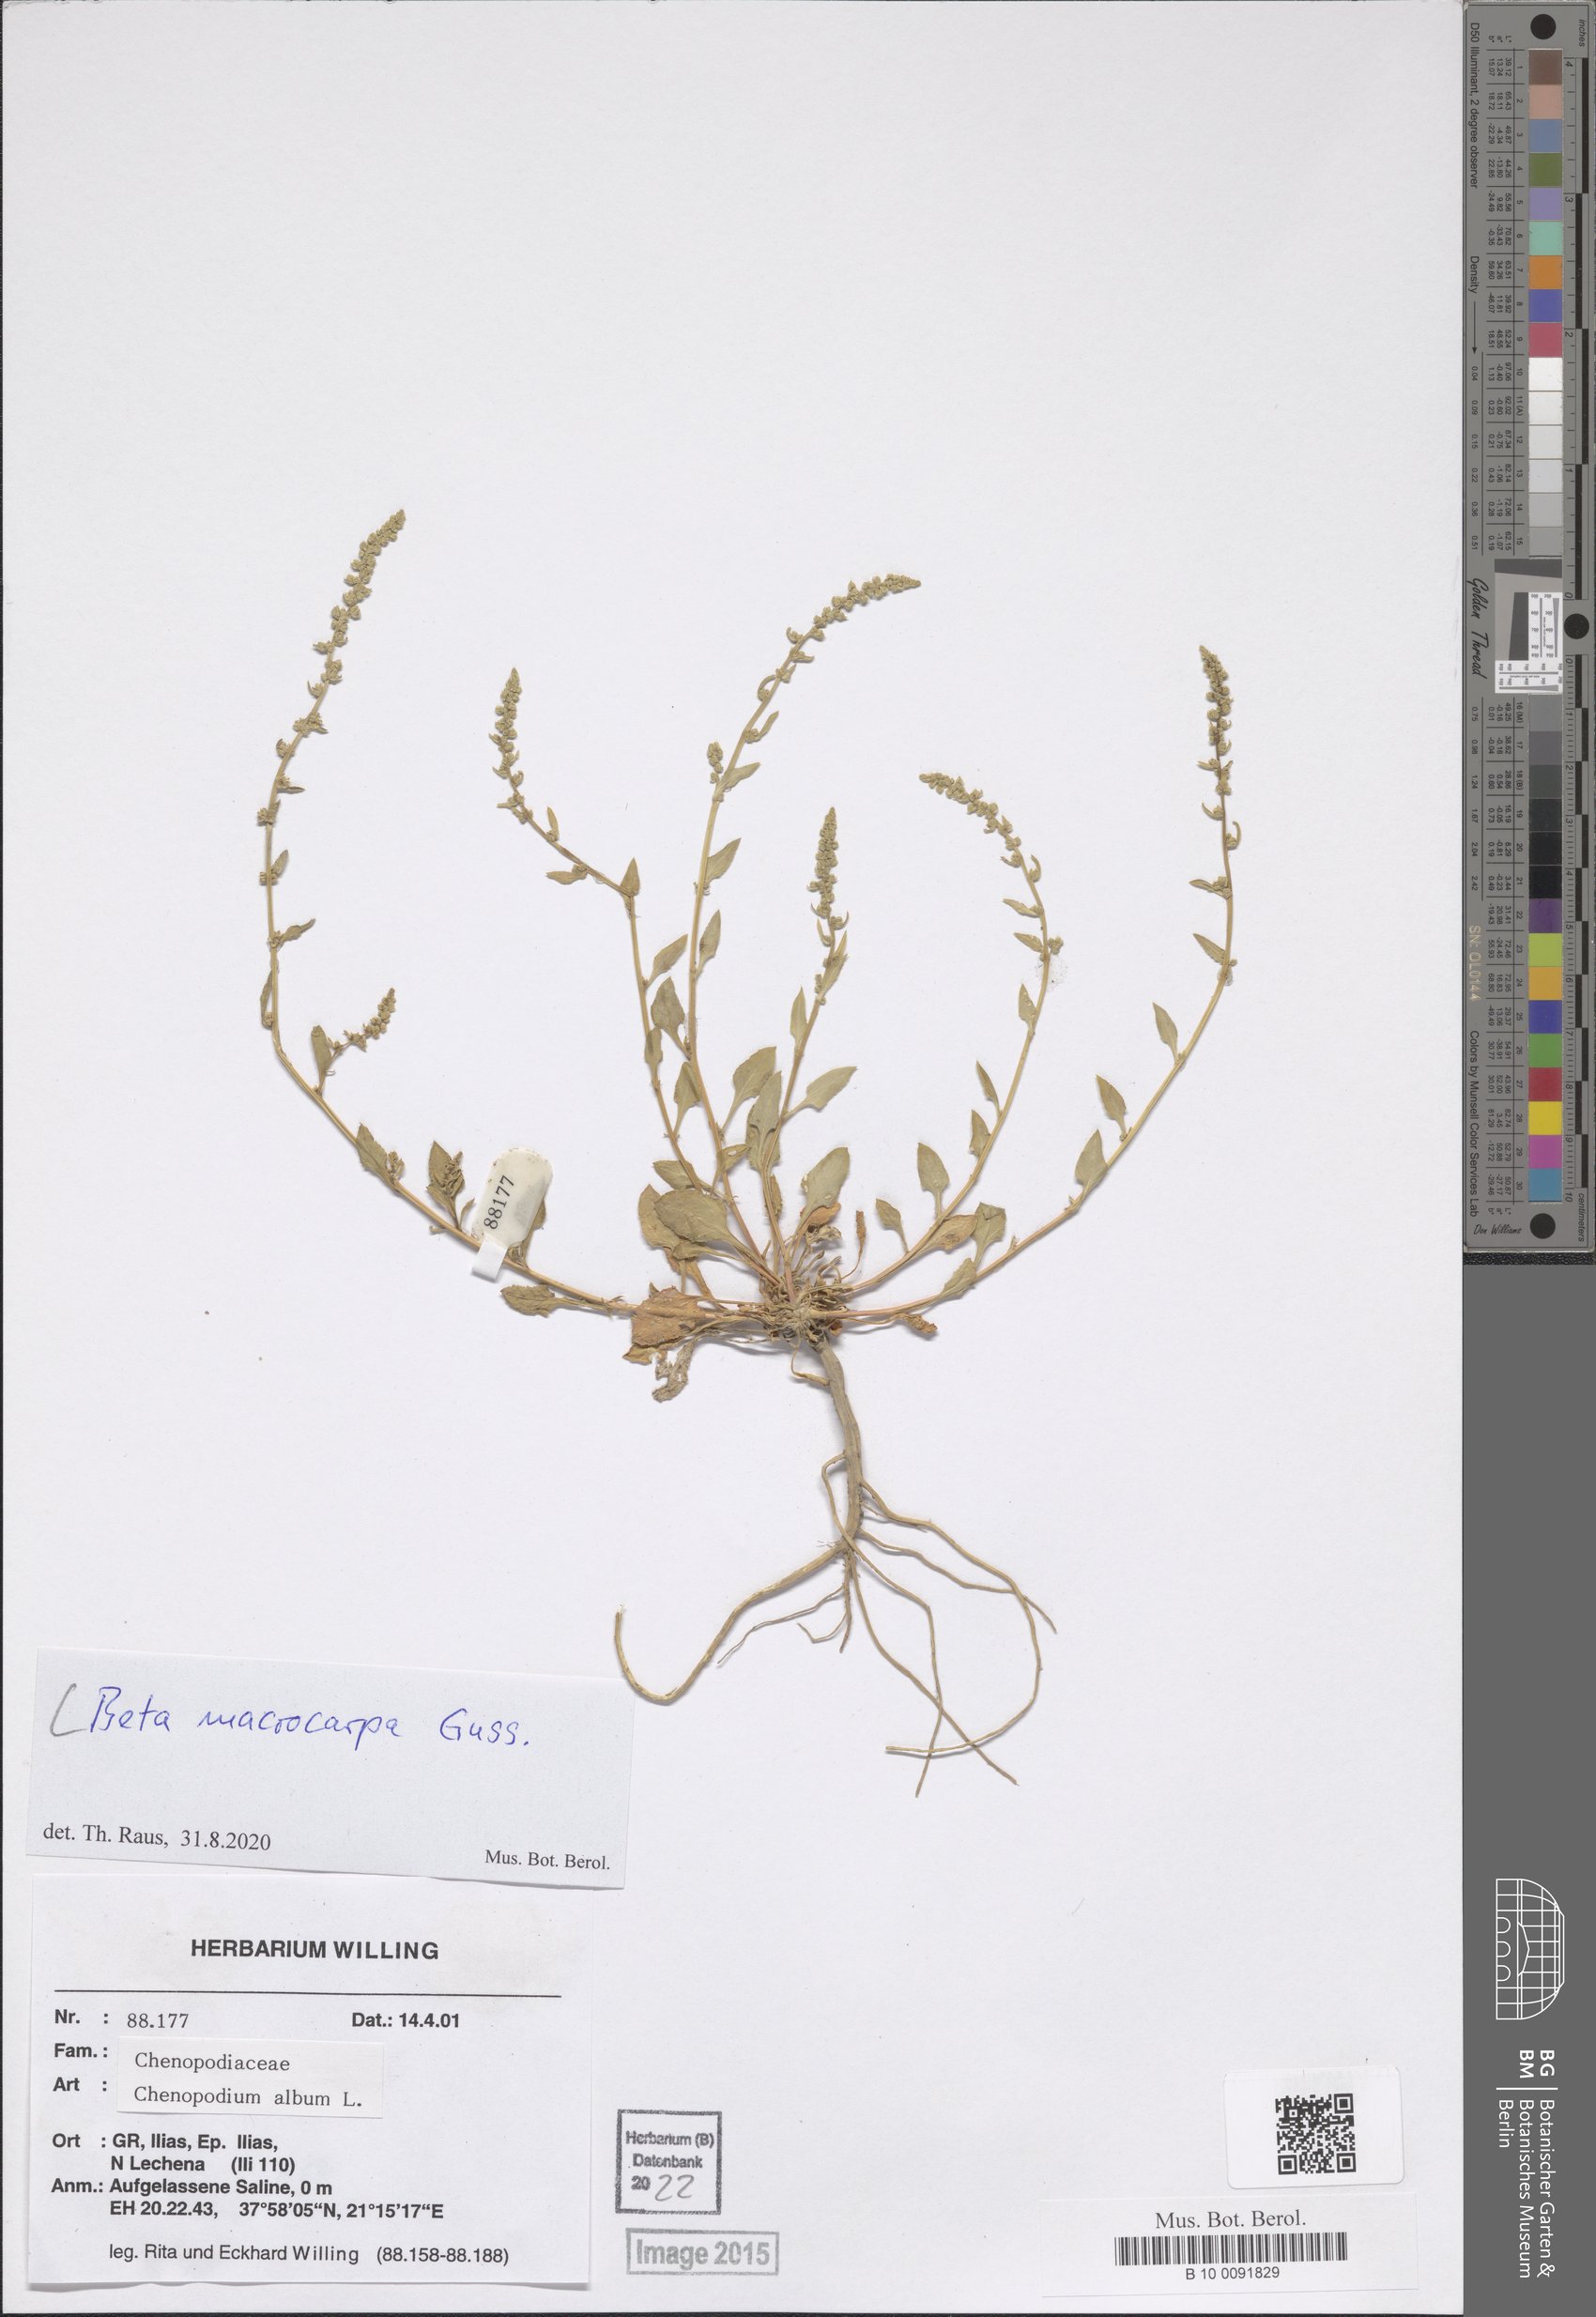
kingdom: Plantae
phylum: Tracheophyta
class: Magnoliopsida
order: Caryophyllales
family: Amaranthaceae
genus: Beta
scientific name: Beta macrocarpa
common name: Beet
